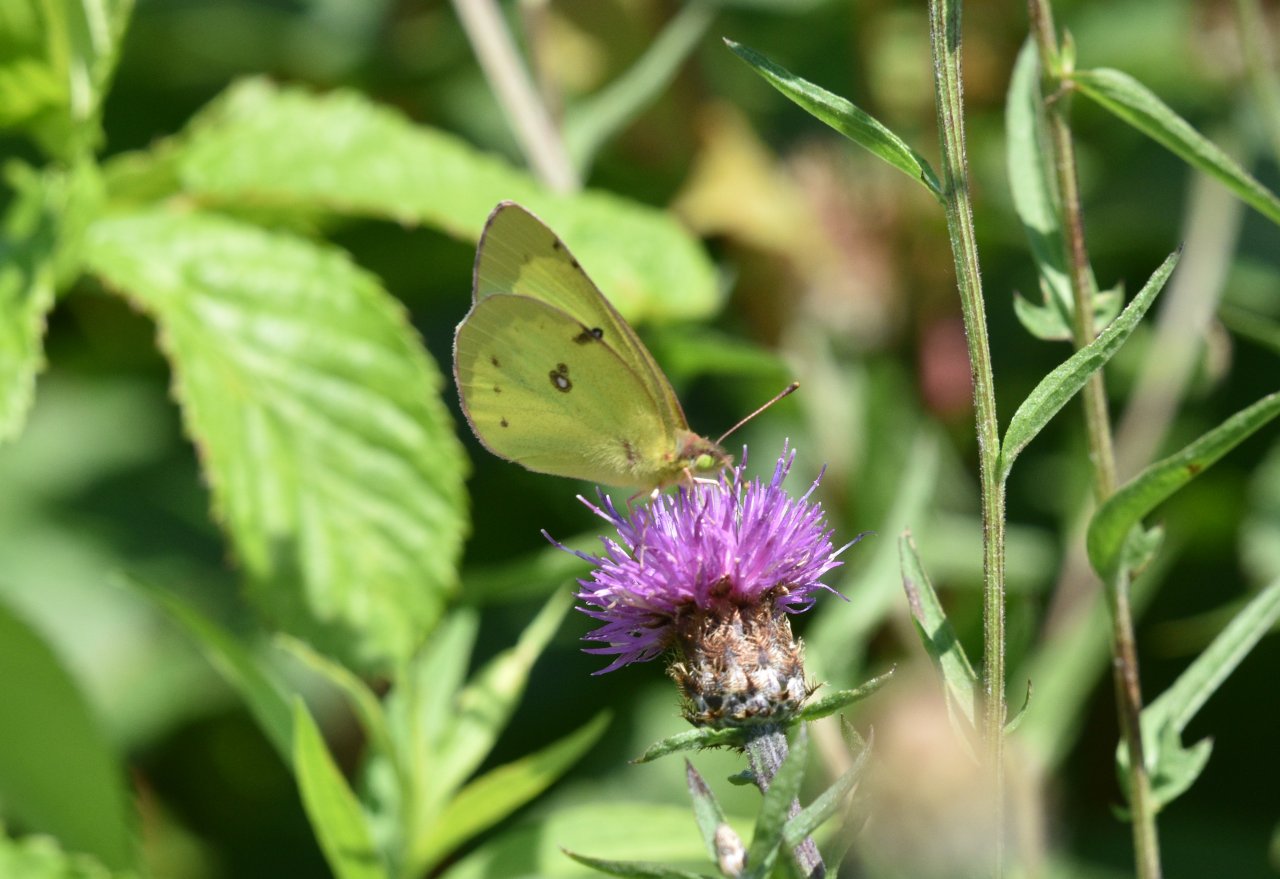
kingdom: Animalia
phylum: Arthropoda
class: Insecta
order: Lepidoptera
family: Pieridae
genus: Colias
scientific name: Colias philodice
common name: Clouded Sulphur
